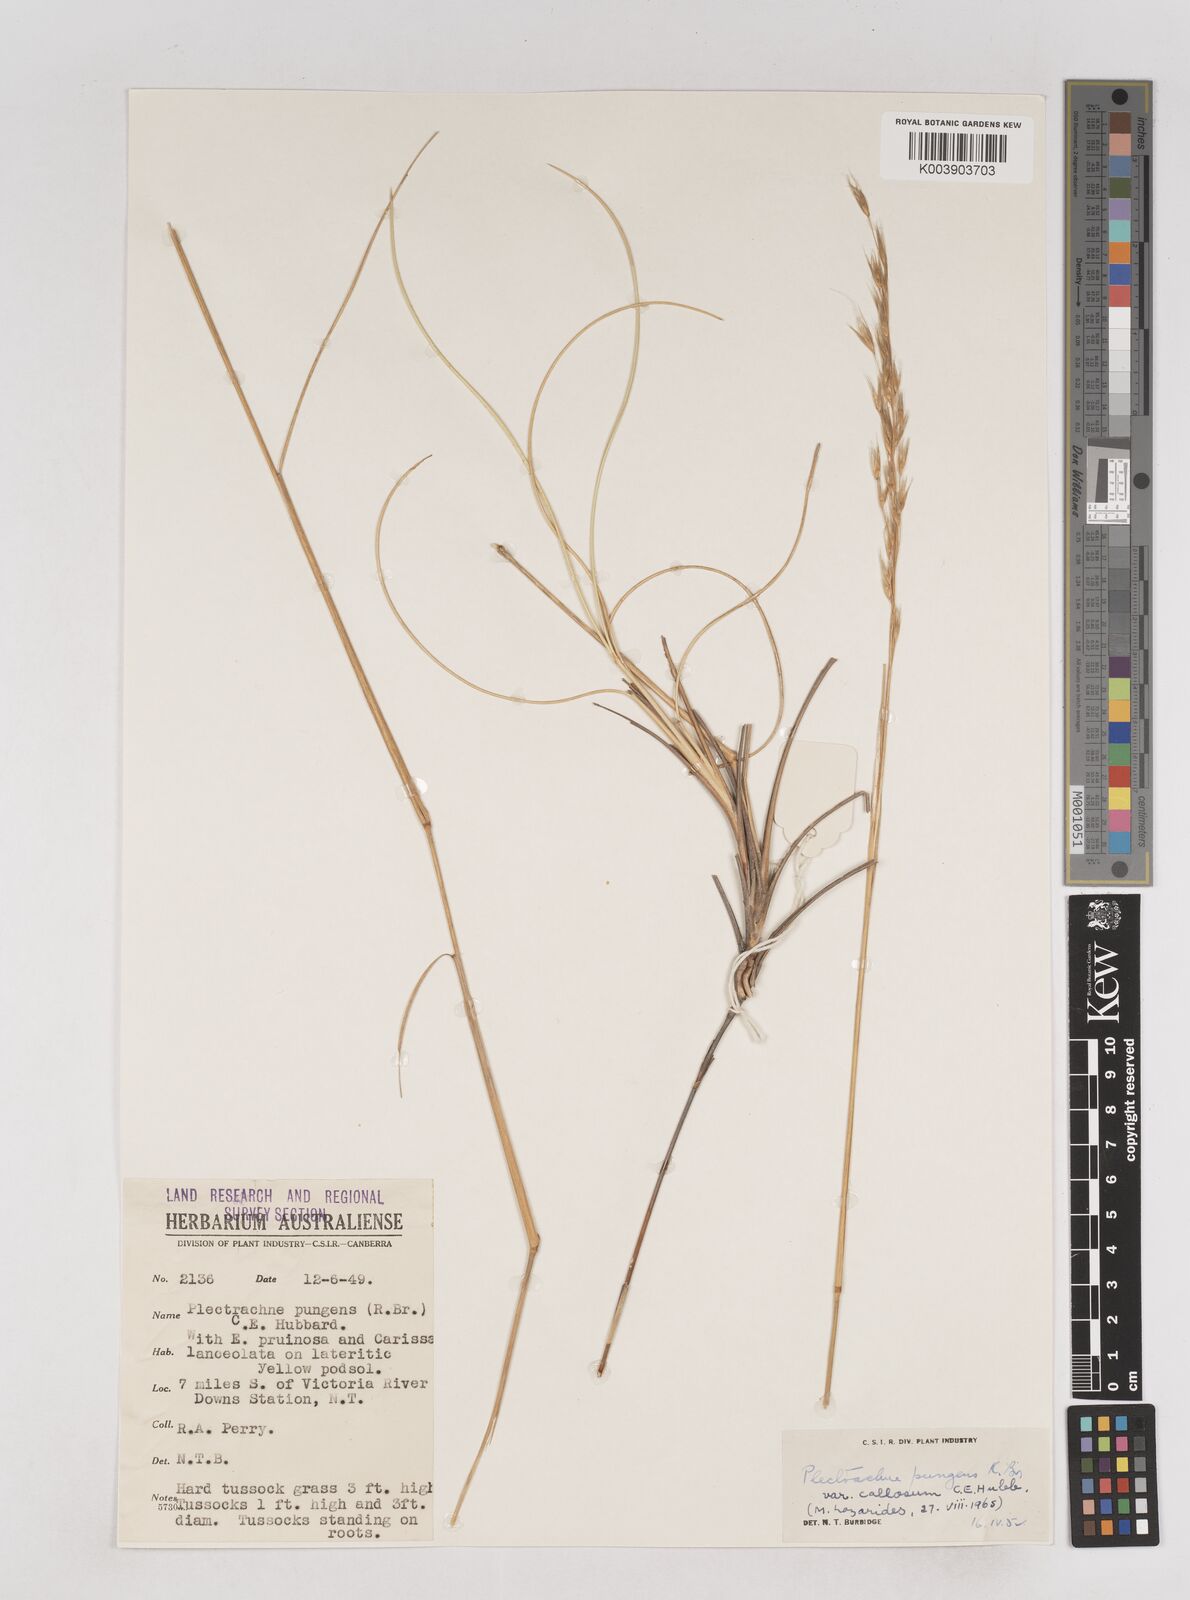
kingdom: Plantae
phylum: Tracheophyta
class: Liliopsida
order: Poales
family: Poaceae
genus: Triodia
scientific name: Triodia bitextura
